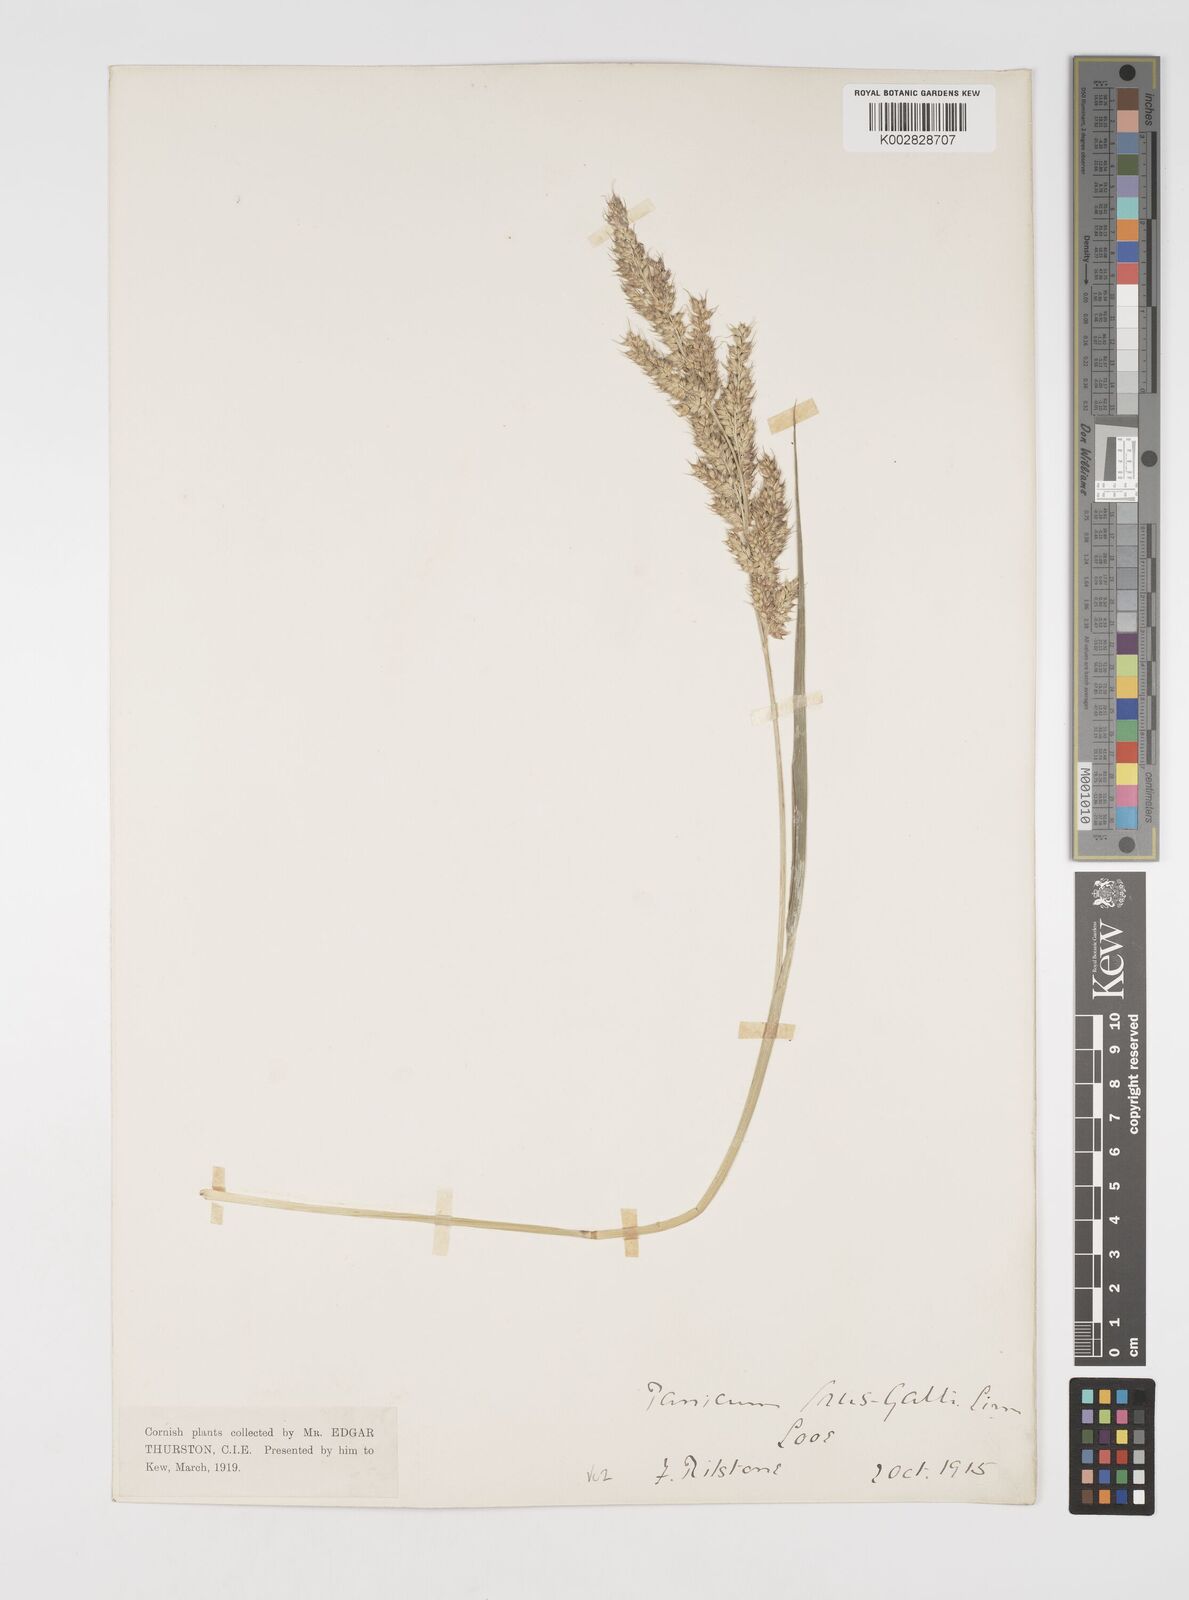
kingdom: Plantae
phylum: Tracheophyta
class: Liliopsida
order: Poales
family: Poaceae
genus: Echinochloa
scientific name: Echinochloa crus-galli
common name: Cockspur
